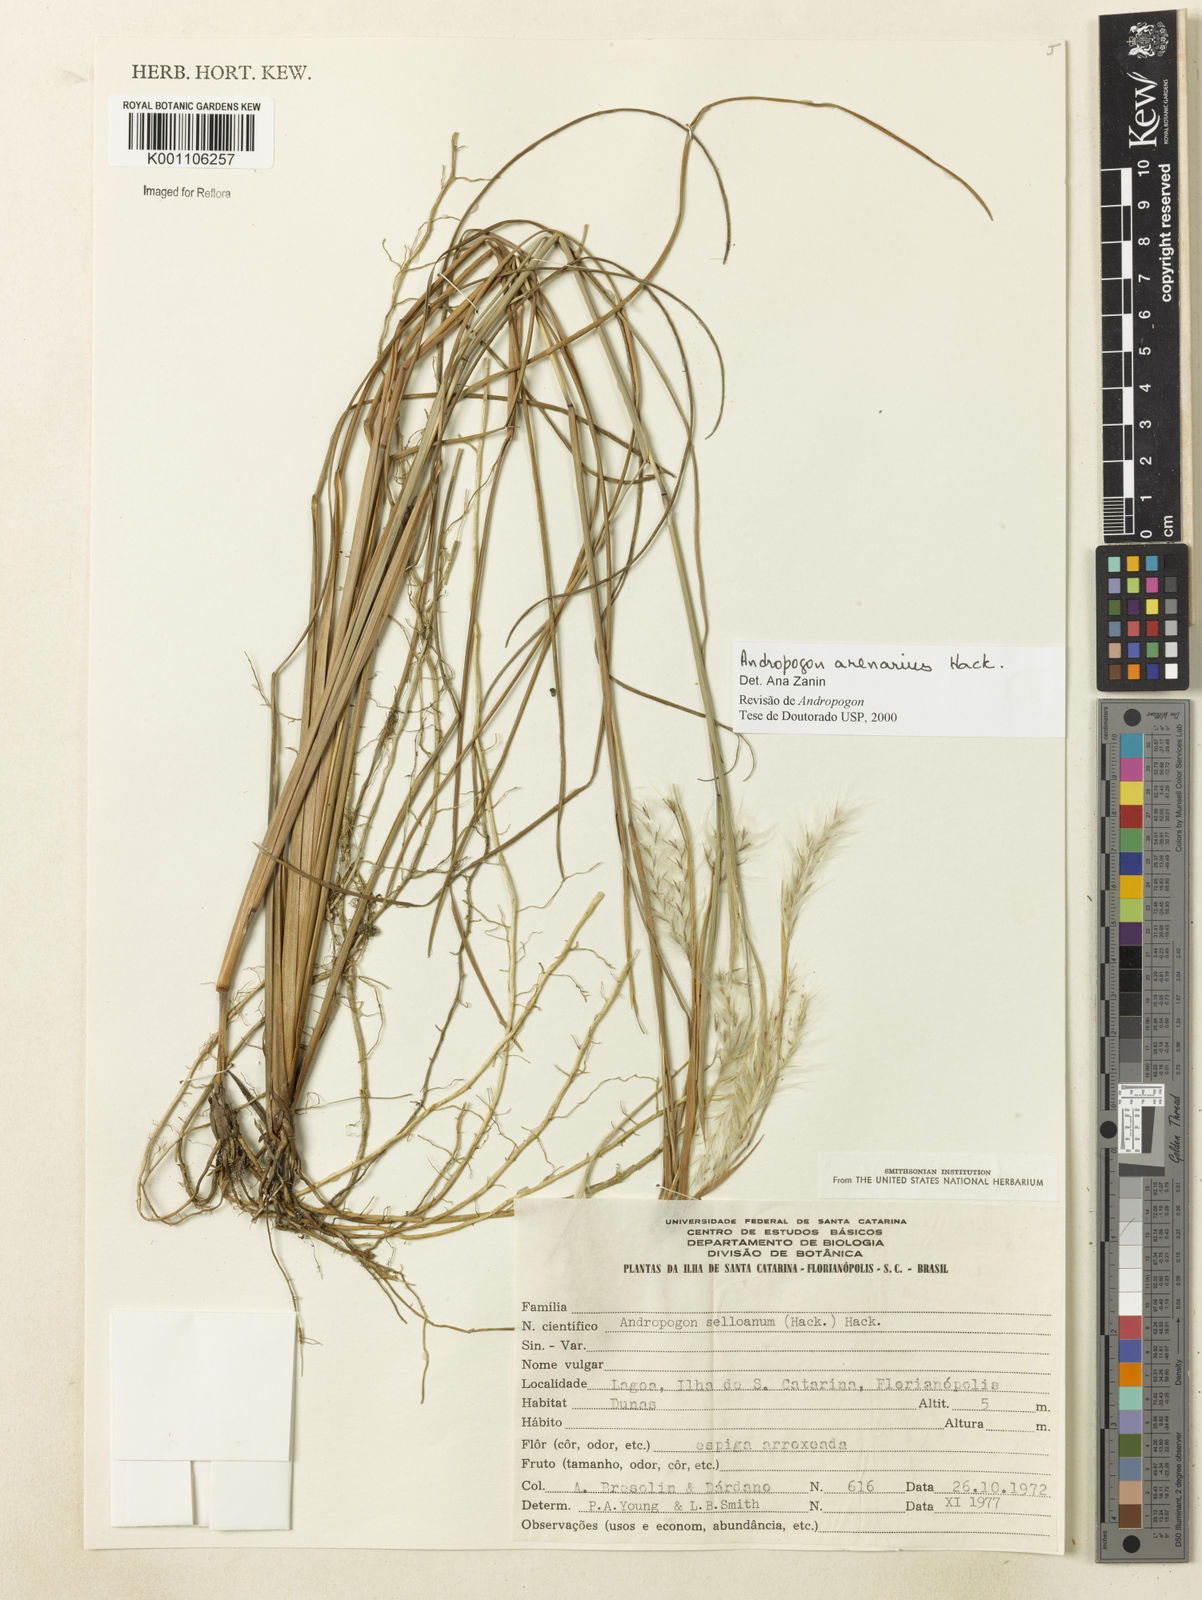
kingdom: Plantae
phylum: Tracheophyta
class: Liliopsida
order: Poales
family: Poaceae
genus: Andropogon
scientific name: Andropogon arenarius
